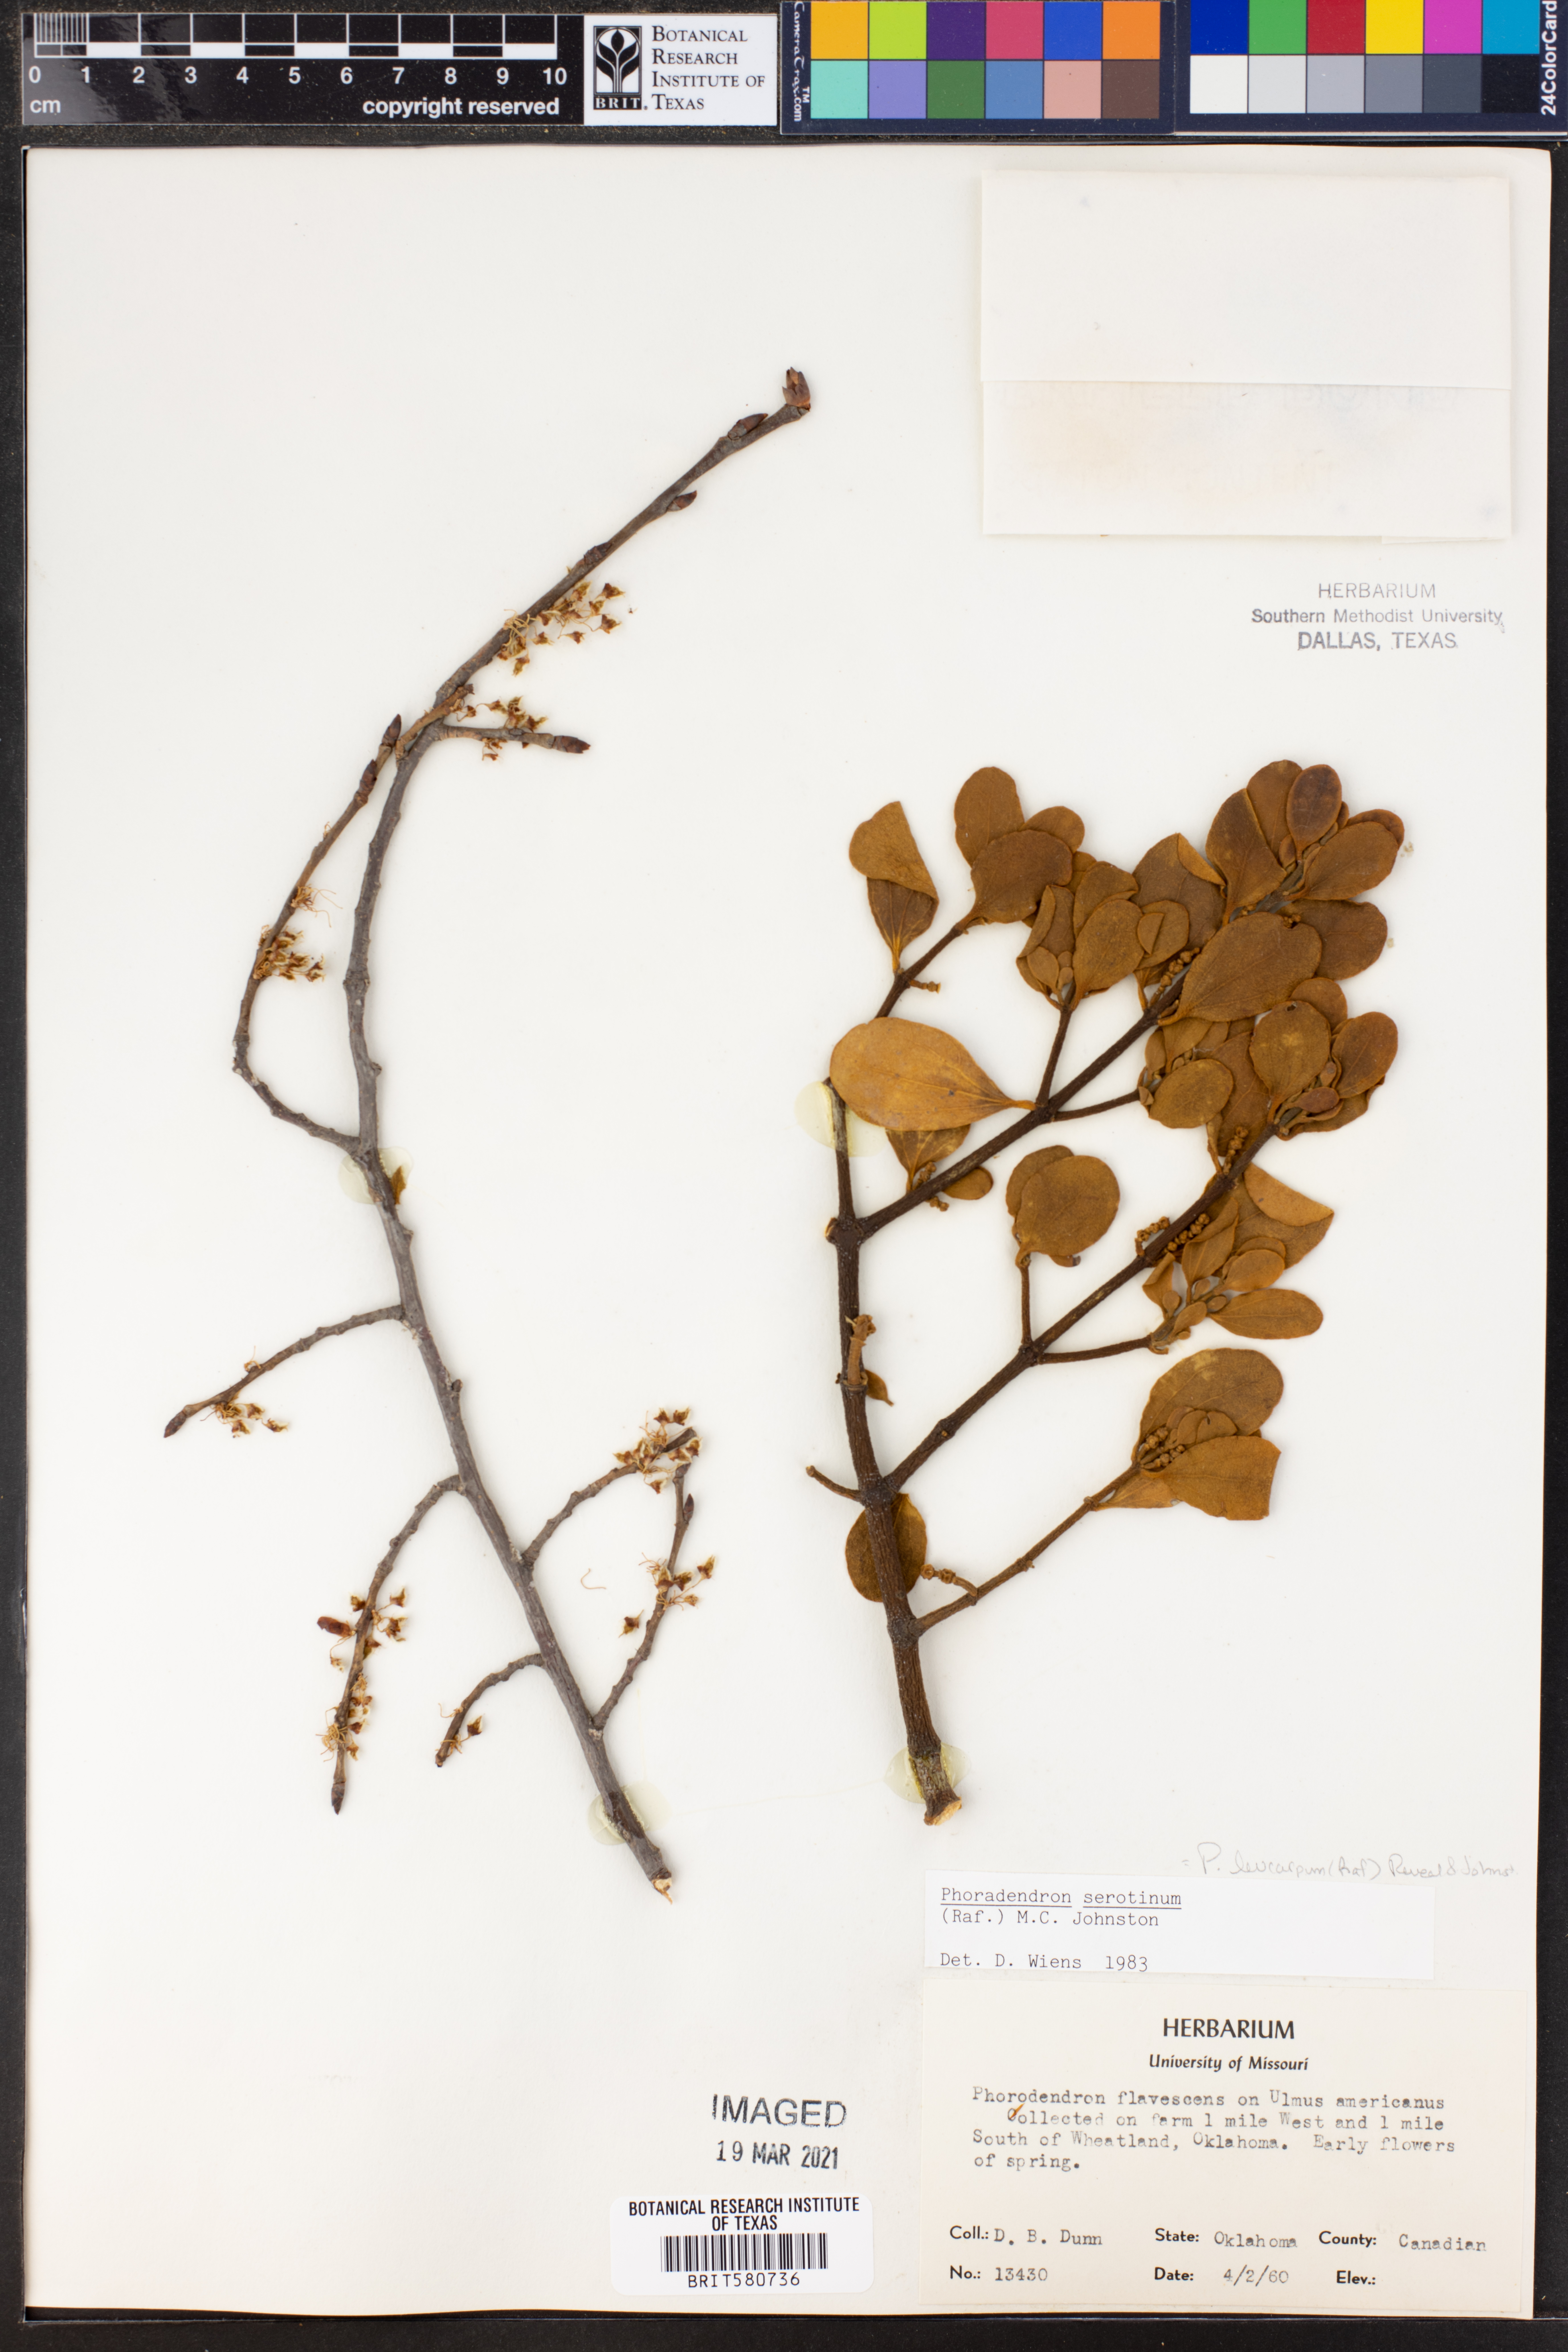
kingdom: Plantae
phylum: Tracheophyta
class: Magnoliopsida
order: Santalales
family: Viscaceae
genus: Phoradendron
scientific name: Phoradendron leucarpum
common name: Pacific mistletoe
